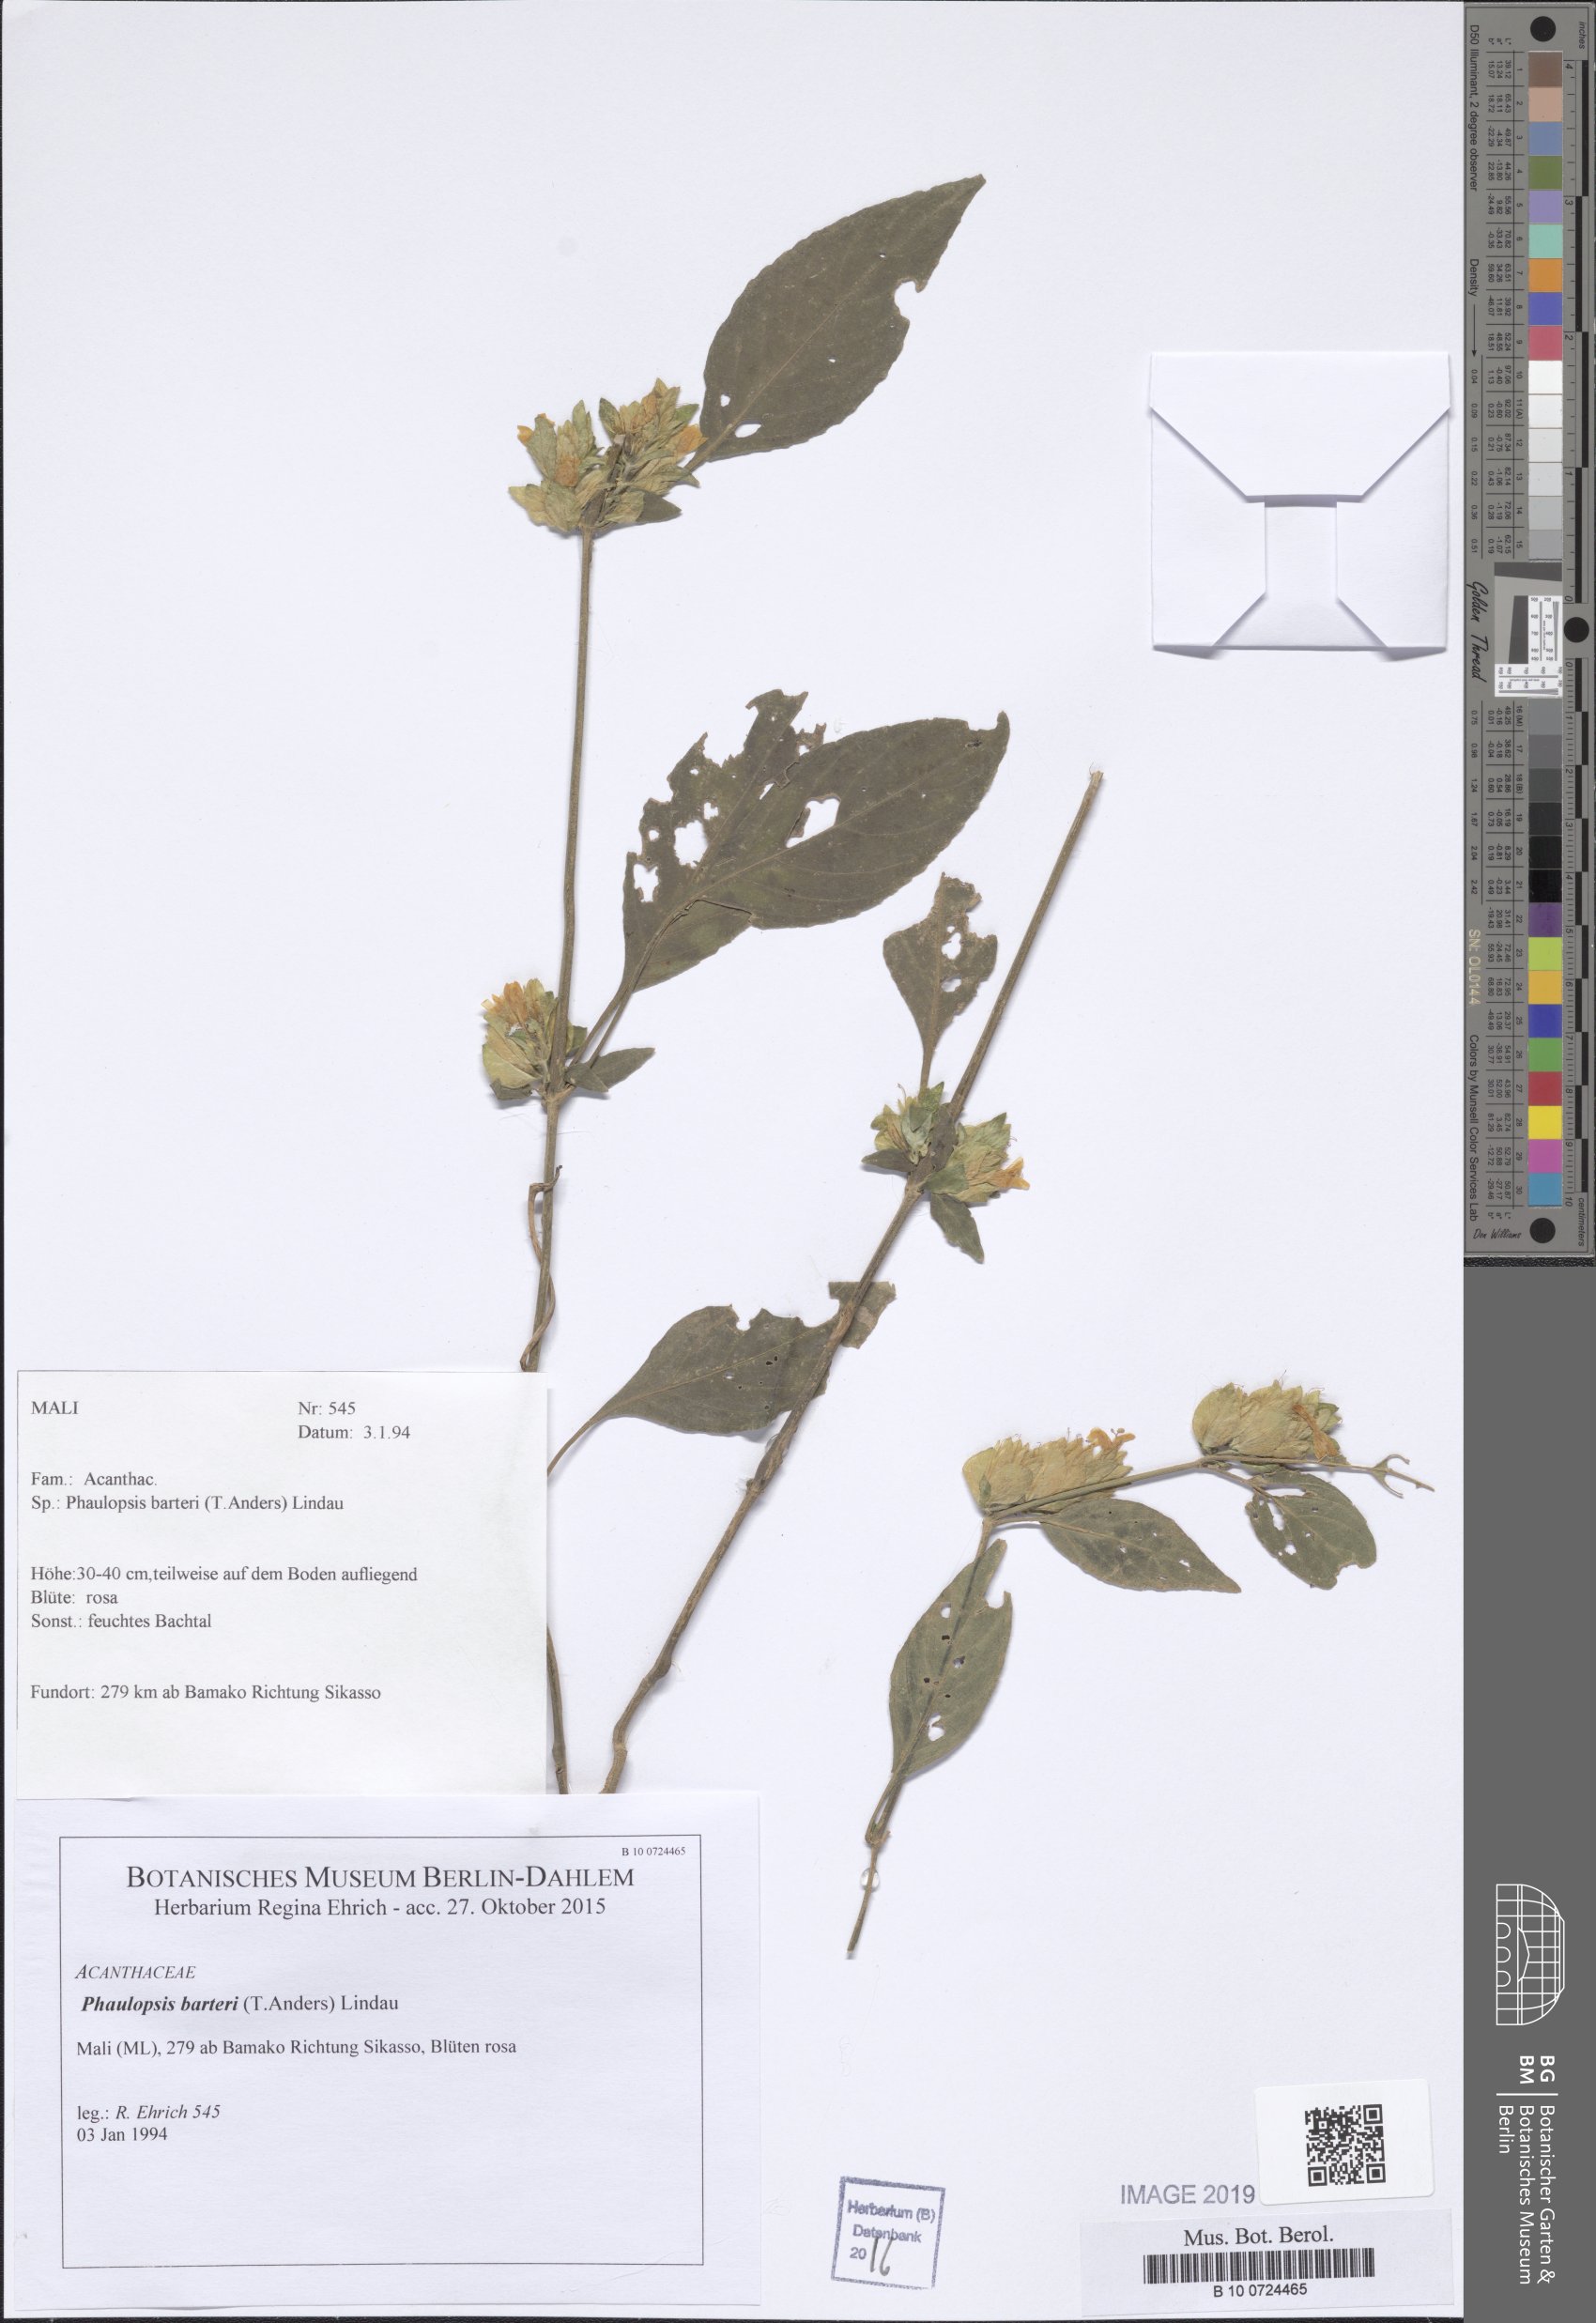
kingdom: Plantae
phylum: Tracheophyta
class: Magnoliopsida
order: Lamiales
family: Acanthaceae
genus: Phaulopsis
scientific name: Phaulopsis barteri
